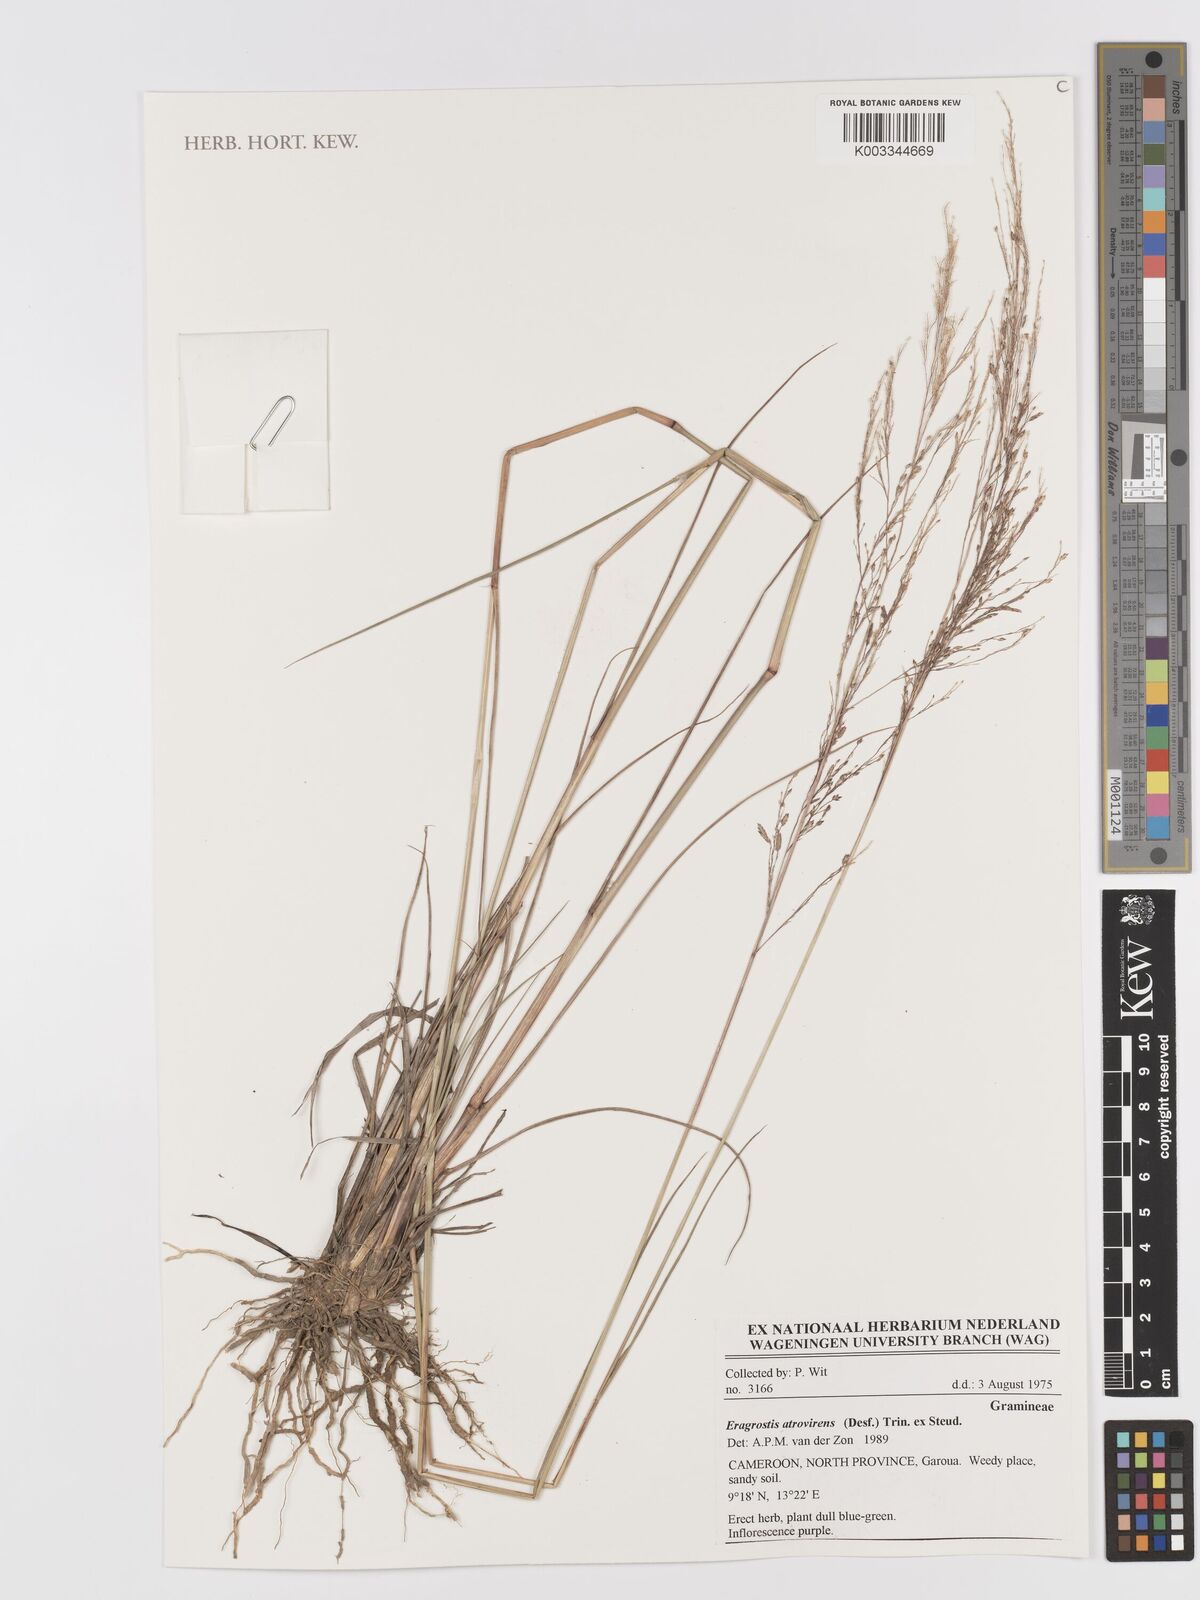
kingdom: Plantae
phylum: Tracheophyta
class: Liliopsida
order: Poales
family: Poaceae
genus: Eragrostis
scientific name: Eragrostis atrovirens
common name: Thalia lovegrass
